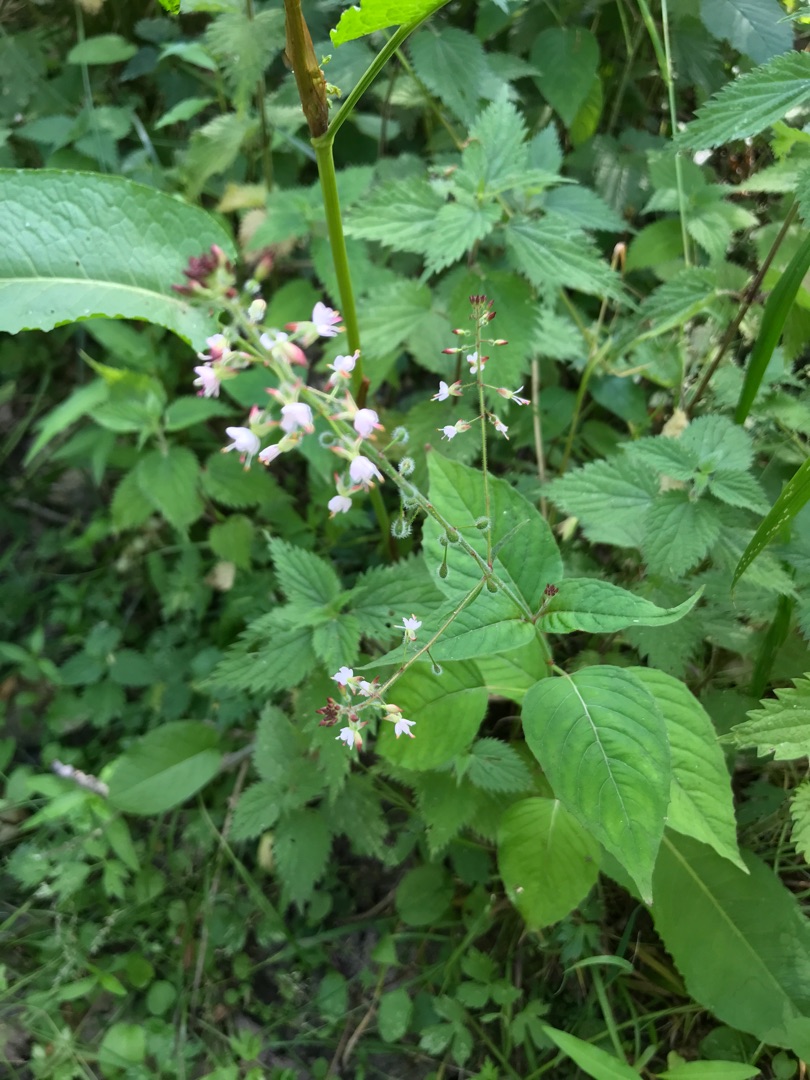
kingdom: Plantae
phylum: Tracheophyta
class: Magnoliopsida
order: Myrtales
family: Onagraceae
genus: Circaea
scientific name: Circaea lutetiana
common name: Dunet steffensurt
